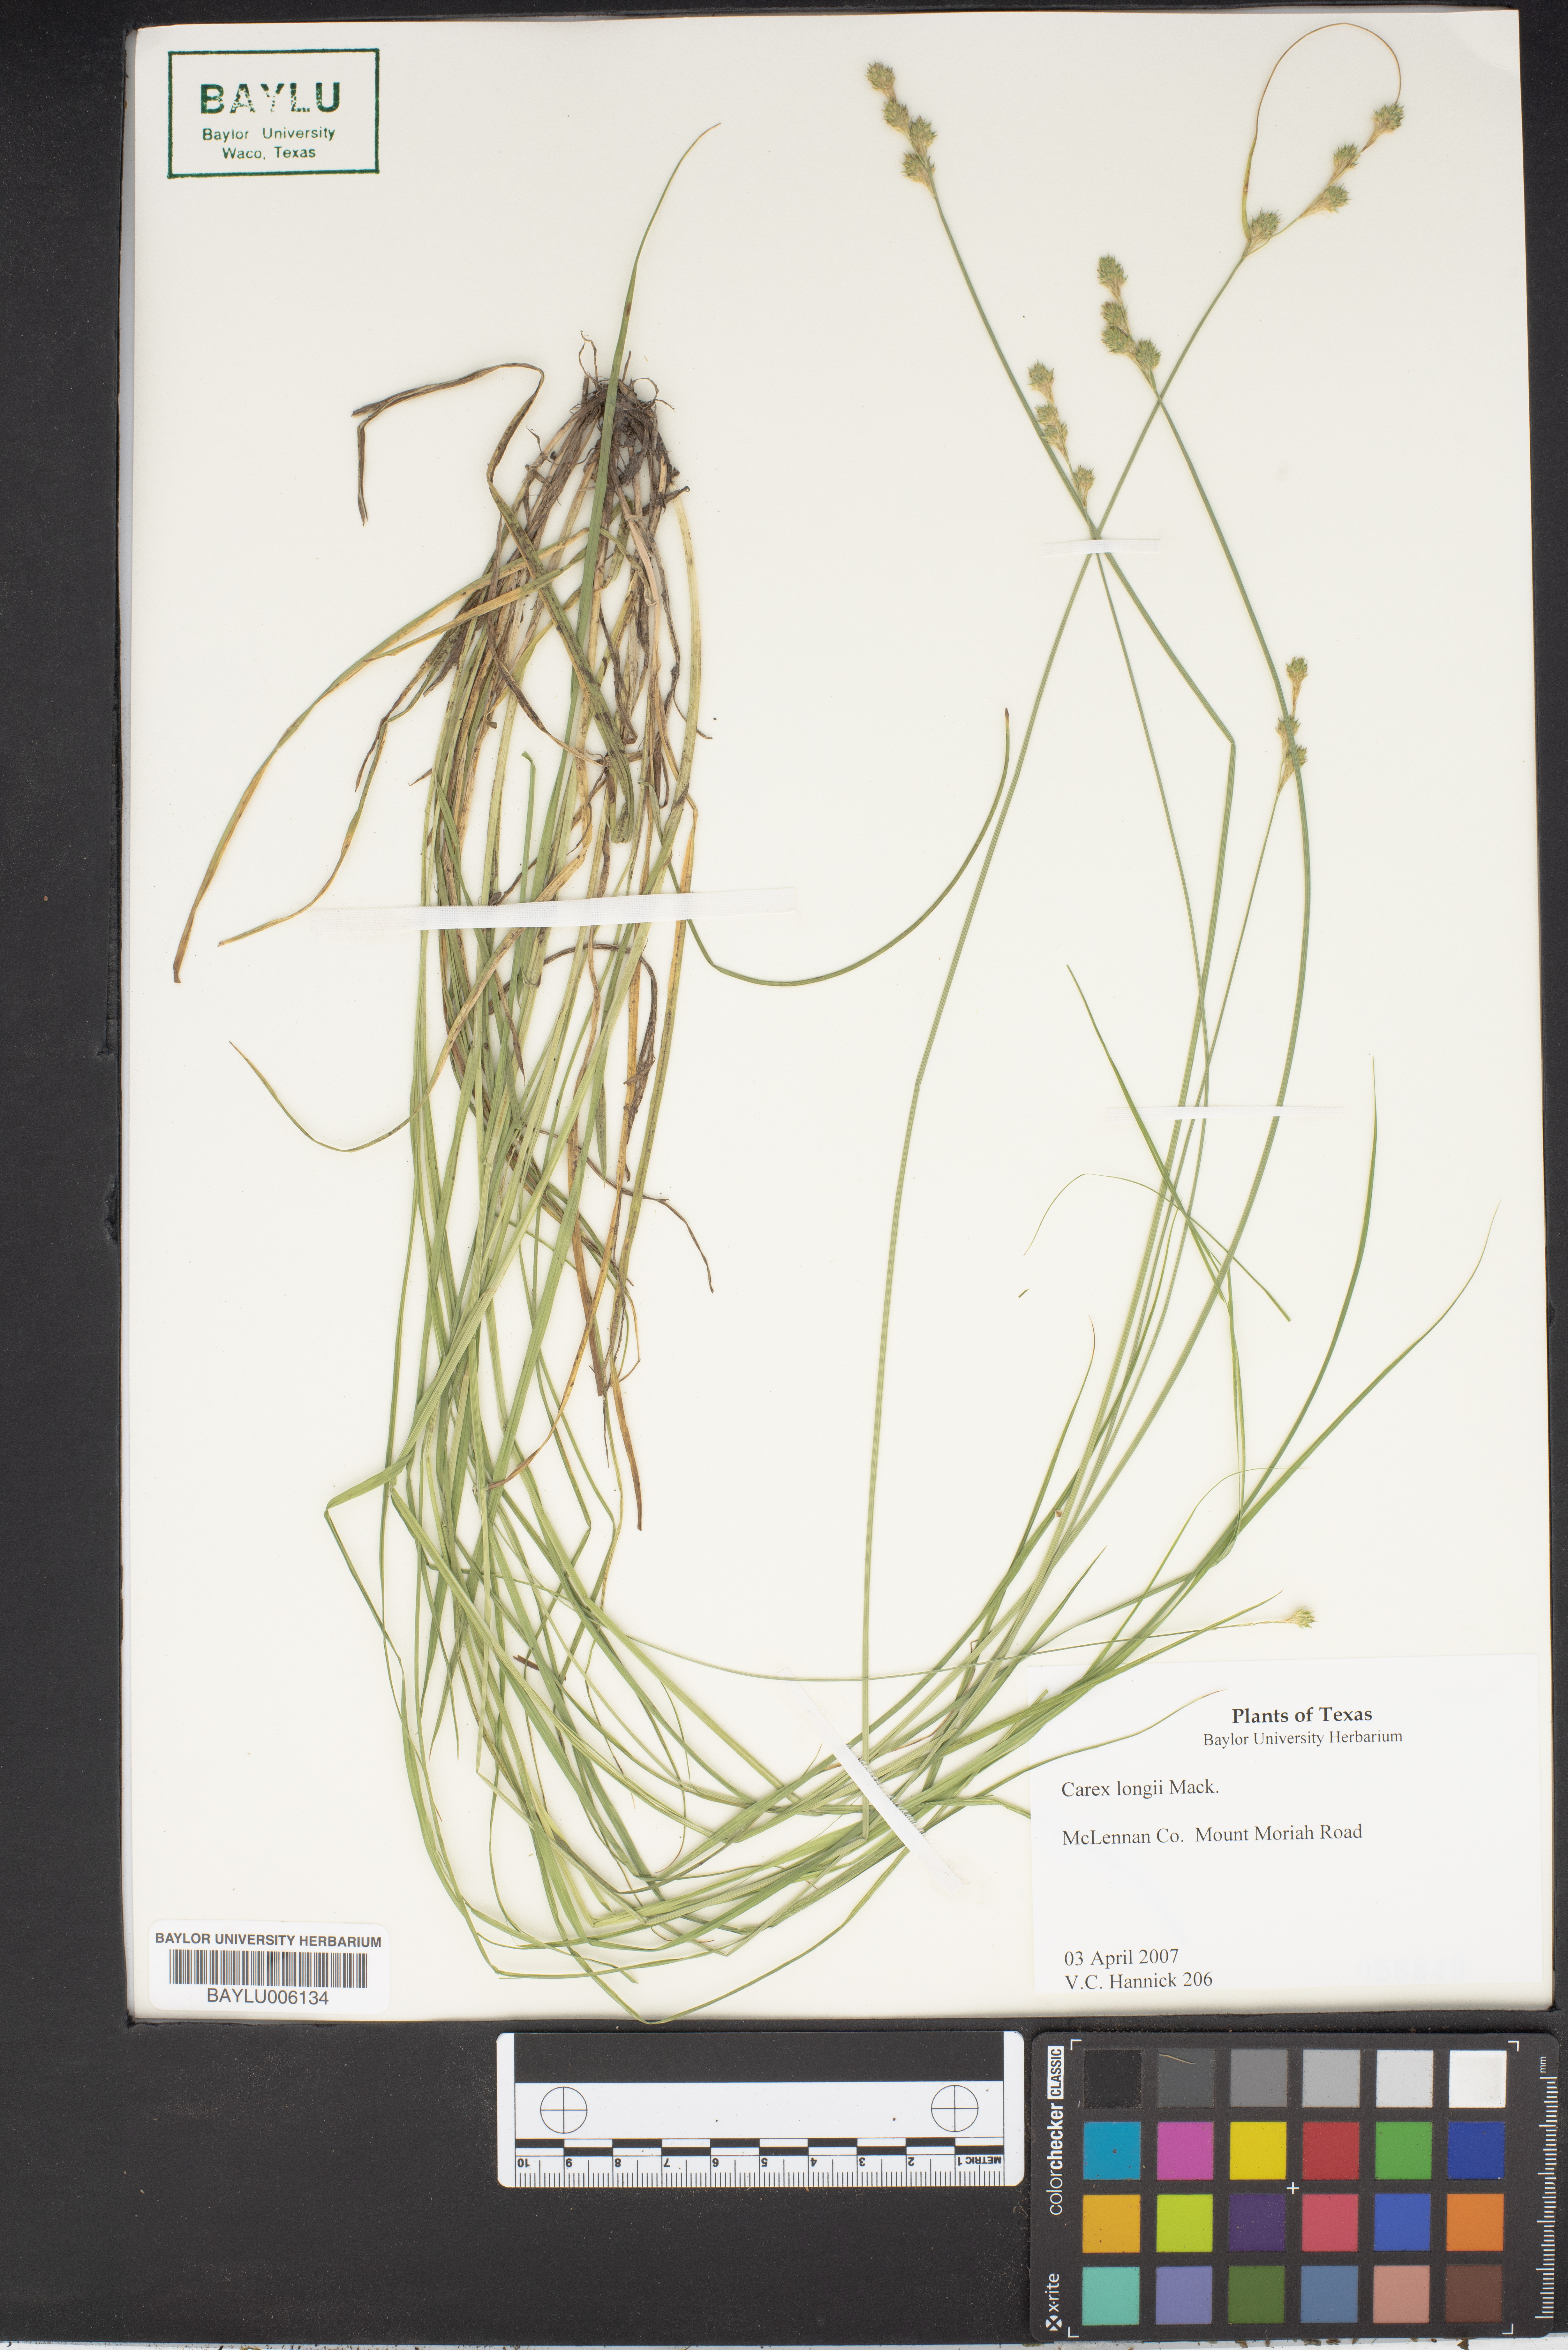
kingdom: Plantae
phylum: Tracheophyta
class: Liliopsida
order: Poales
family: Cyperaceae
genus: Carex
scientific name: Carex longii
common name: Long's sedge
